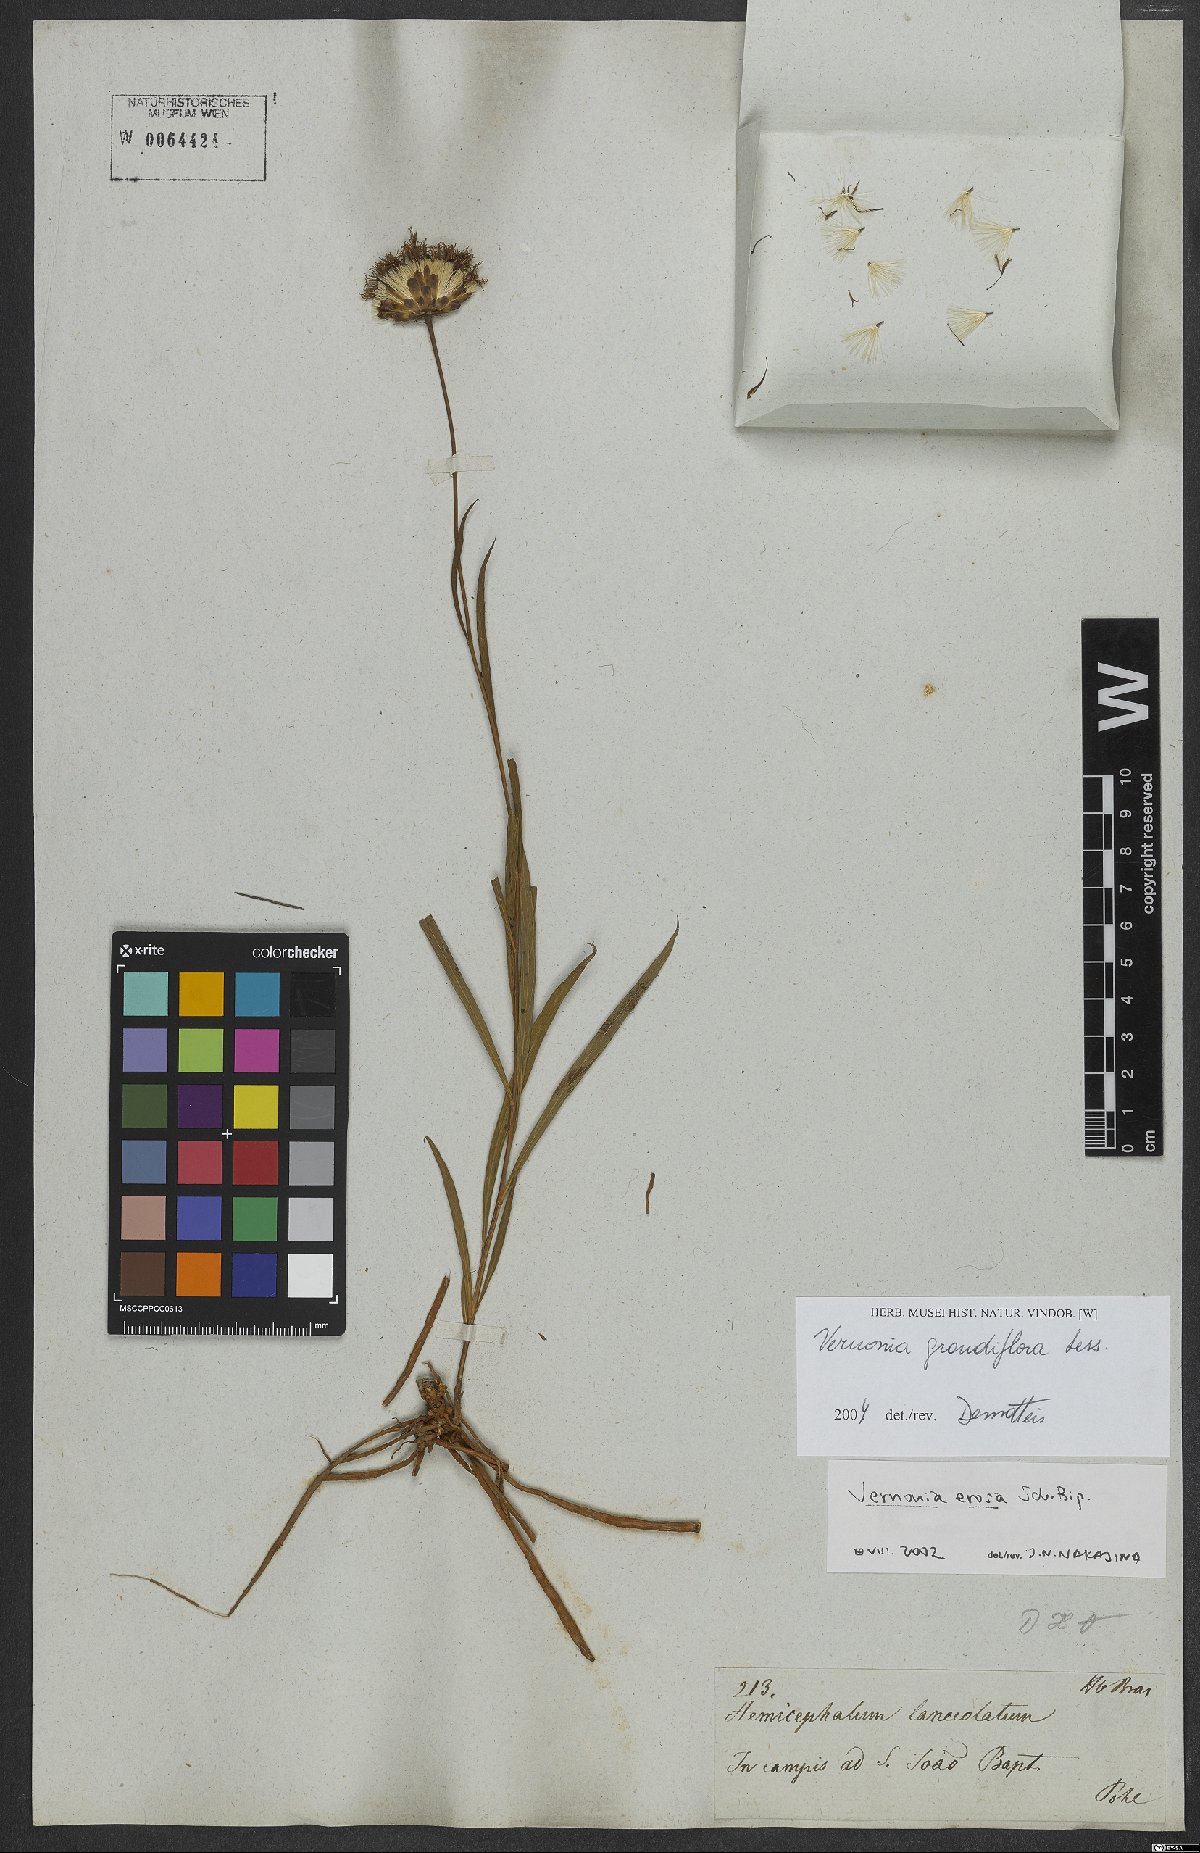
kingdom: Plantae
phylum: Tracheophyta
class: Magnoliopsida
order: Asterales
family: Asteraceae
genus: Lessingianthus
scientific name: Lessingianthus grandiflorus
